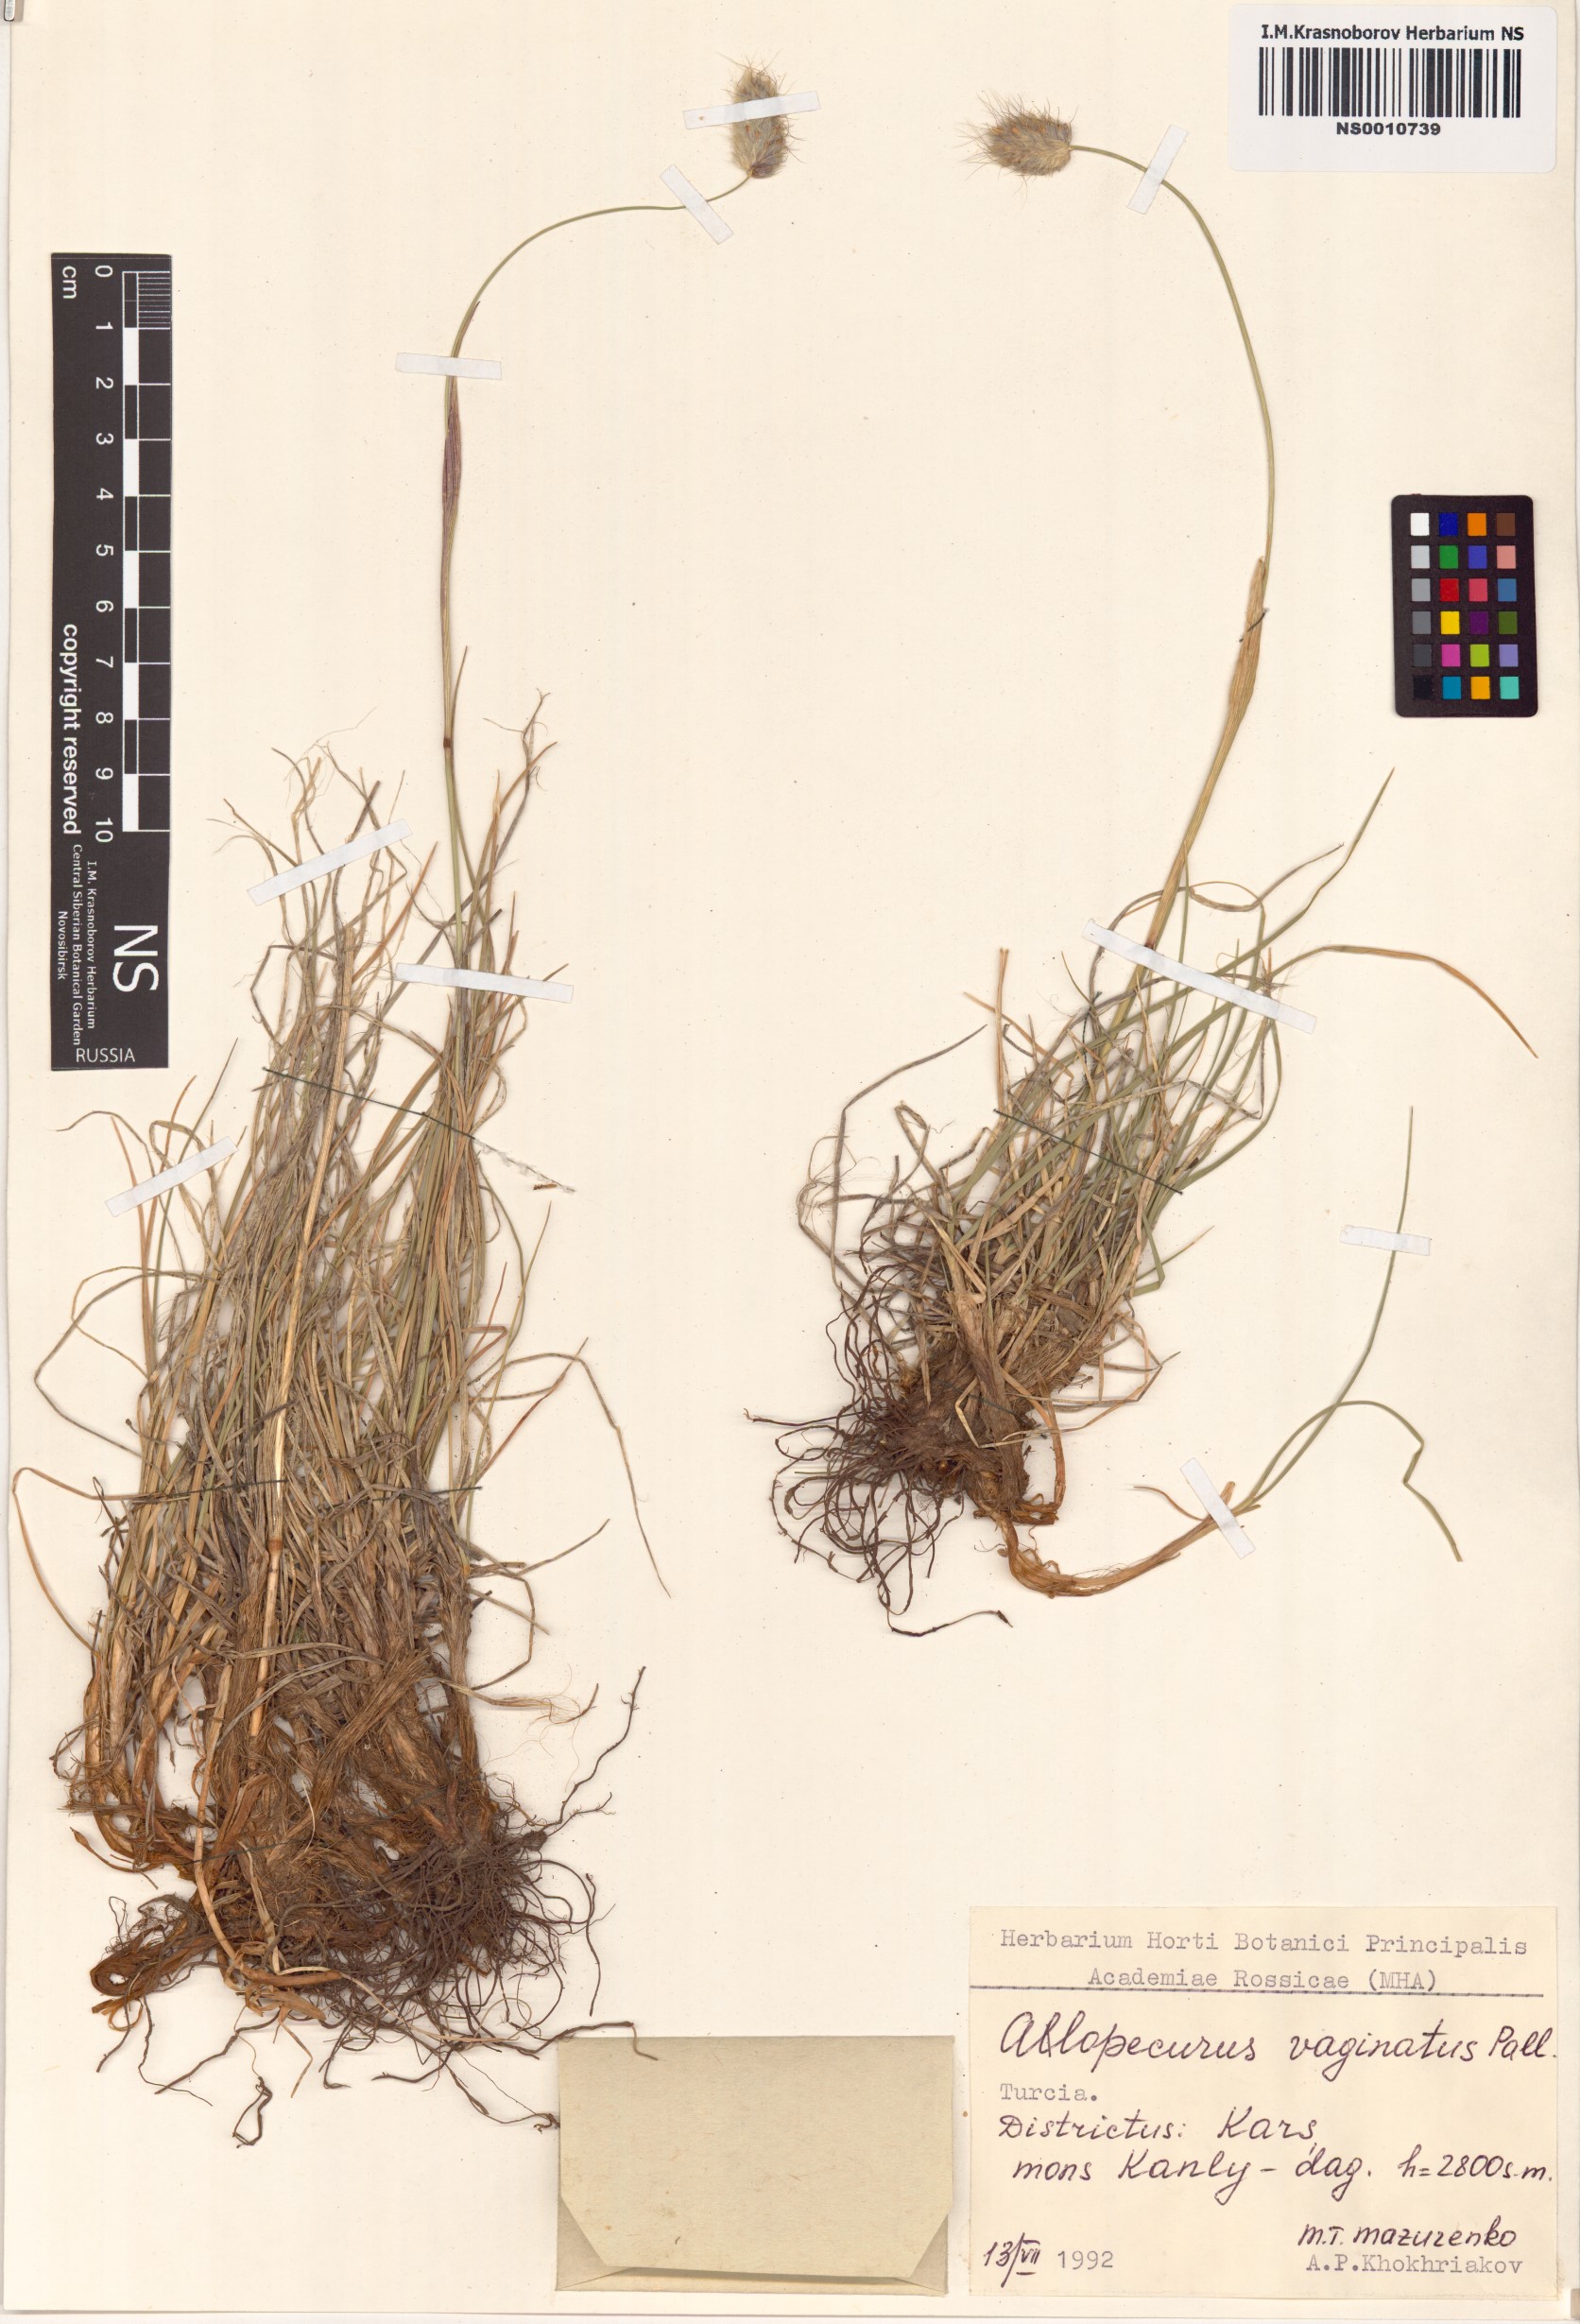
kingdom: Plantae
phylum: Tracheophyta
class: Liliopsida
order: Poales
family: Poaceae
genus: Alopecurus
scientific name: Alopecurus vaginatus
